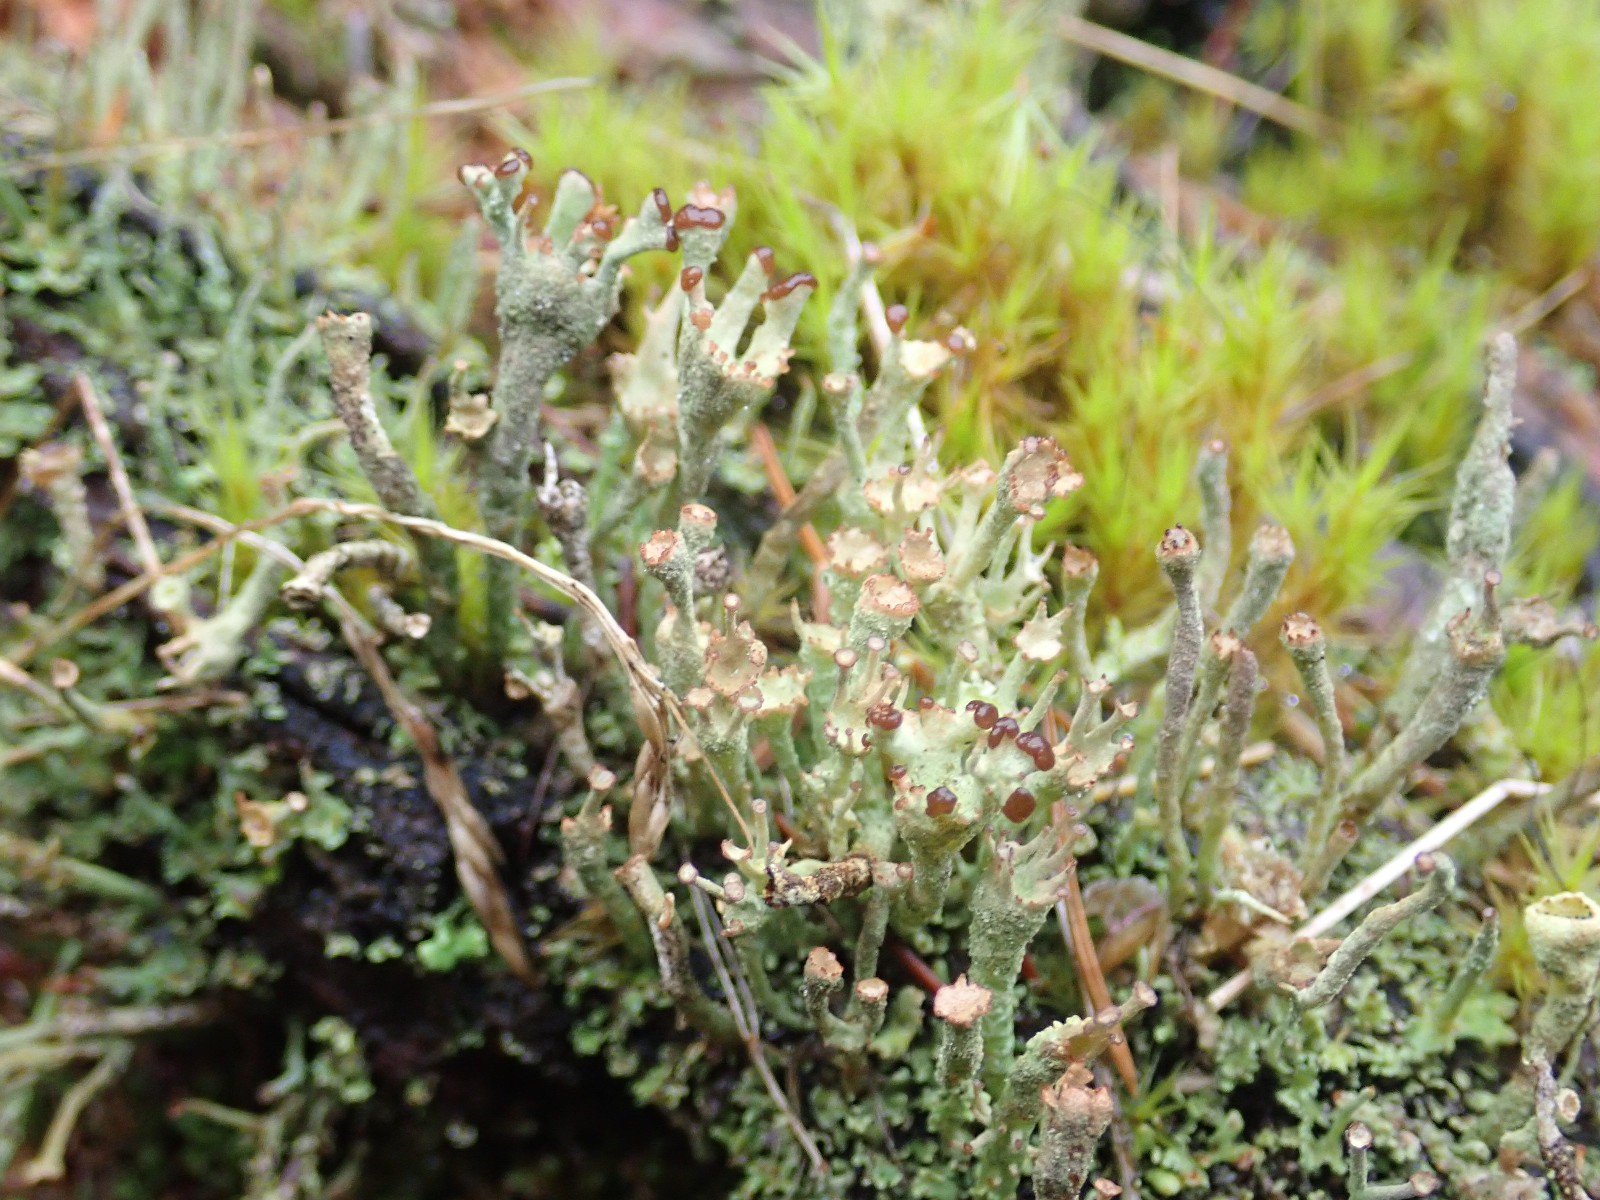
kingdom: Fungi
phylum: Ascomycota
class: Lecanoromycetes
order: Lecanorales
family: Cladoniaceae
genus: Cladonia
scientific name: Cladonia
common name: brungrøn bægerlav
